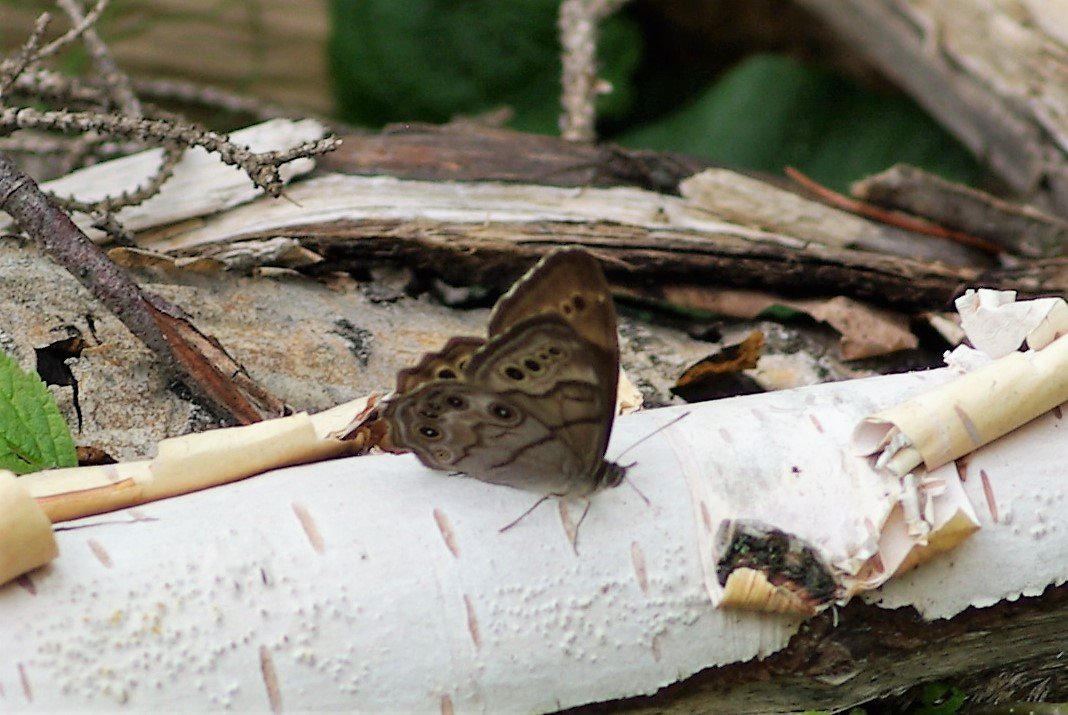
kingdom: Animalia
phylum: Arthropoda
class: Insecta
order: Lepidoptera
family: Nymphalidae
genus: Lethe
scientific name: Lethe anthedon
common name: Northern Pearly-Eye
